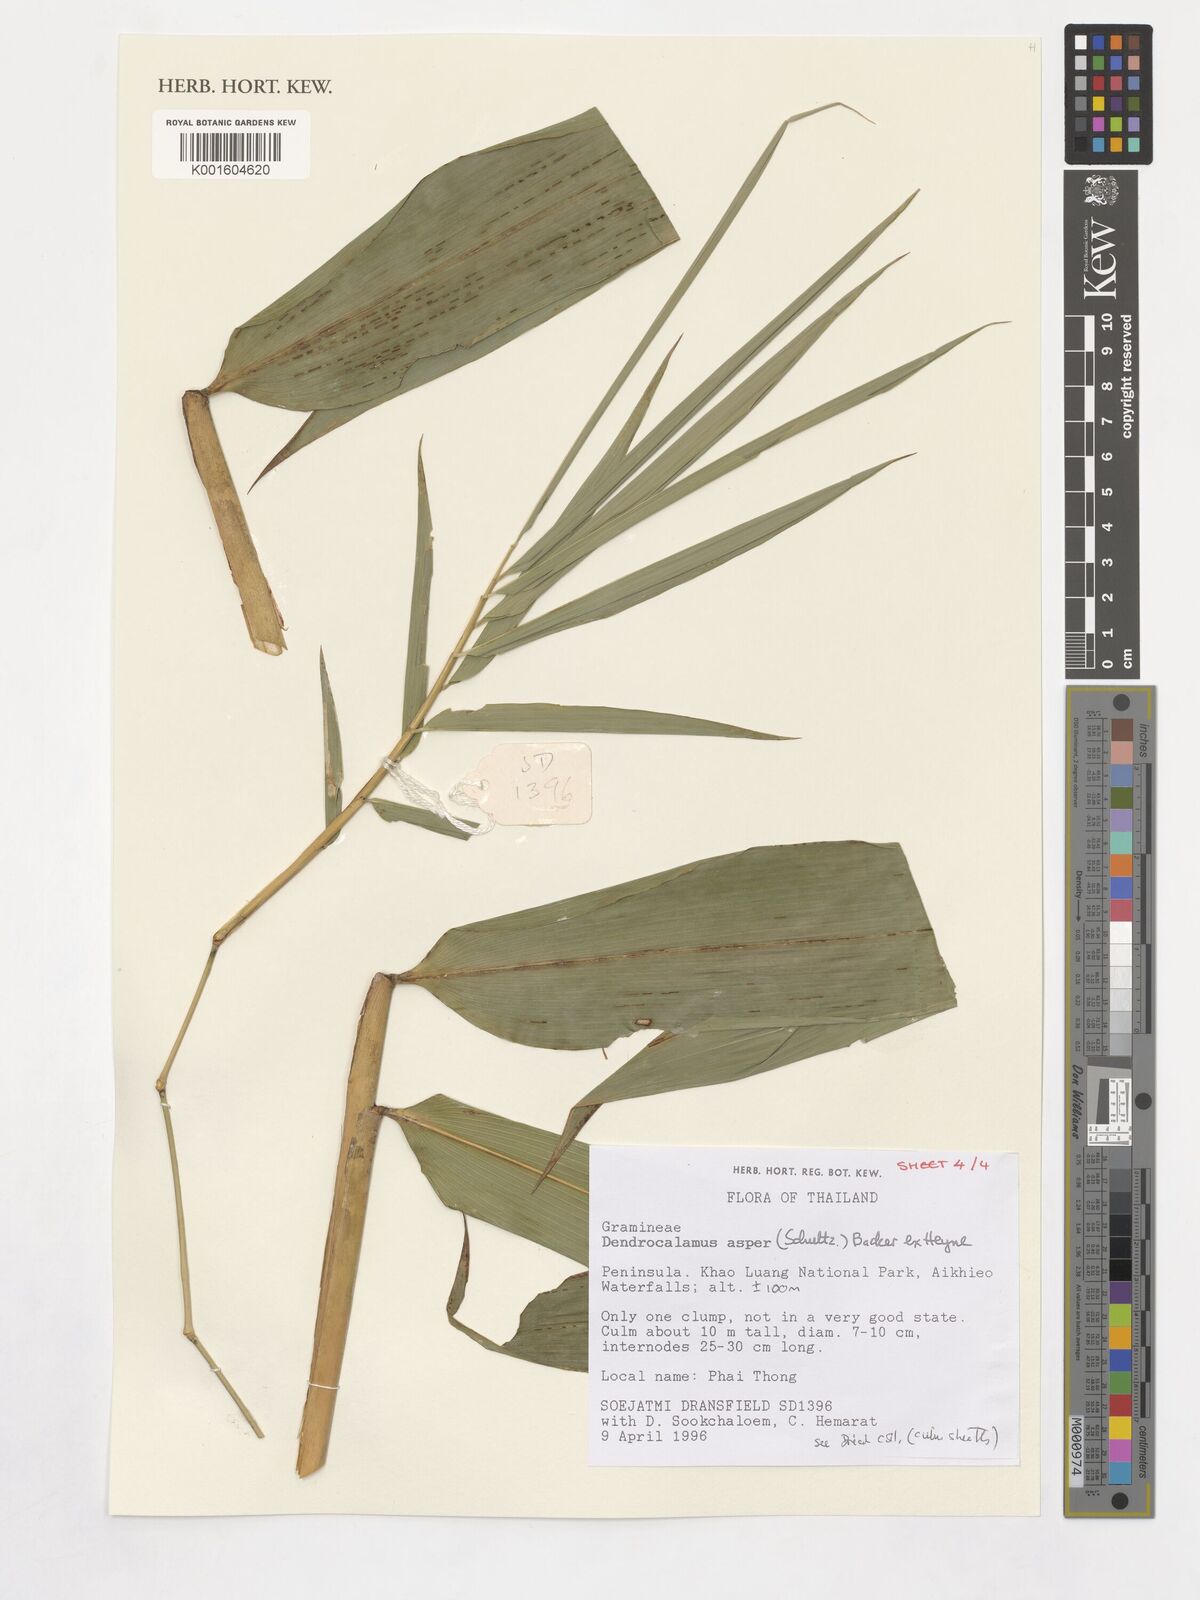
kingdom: Plantae
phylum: Tracheophyta
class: Liliopsida
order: Poales
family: Poaceae
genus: Dendrocalamus
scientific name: Dendrocalamus asper
